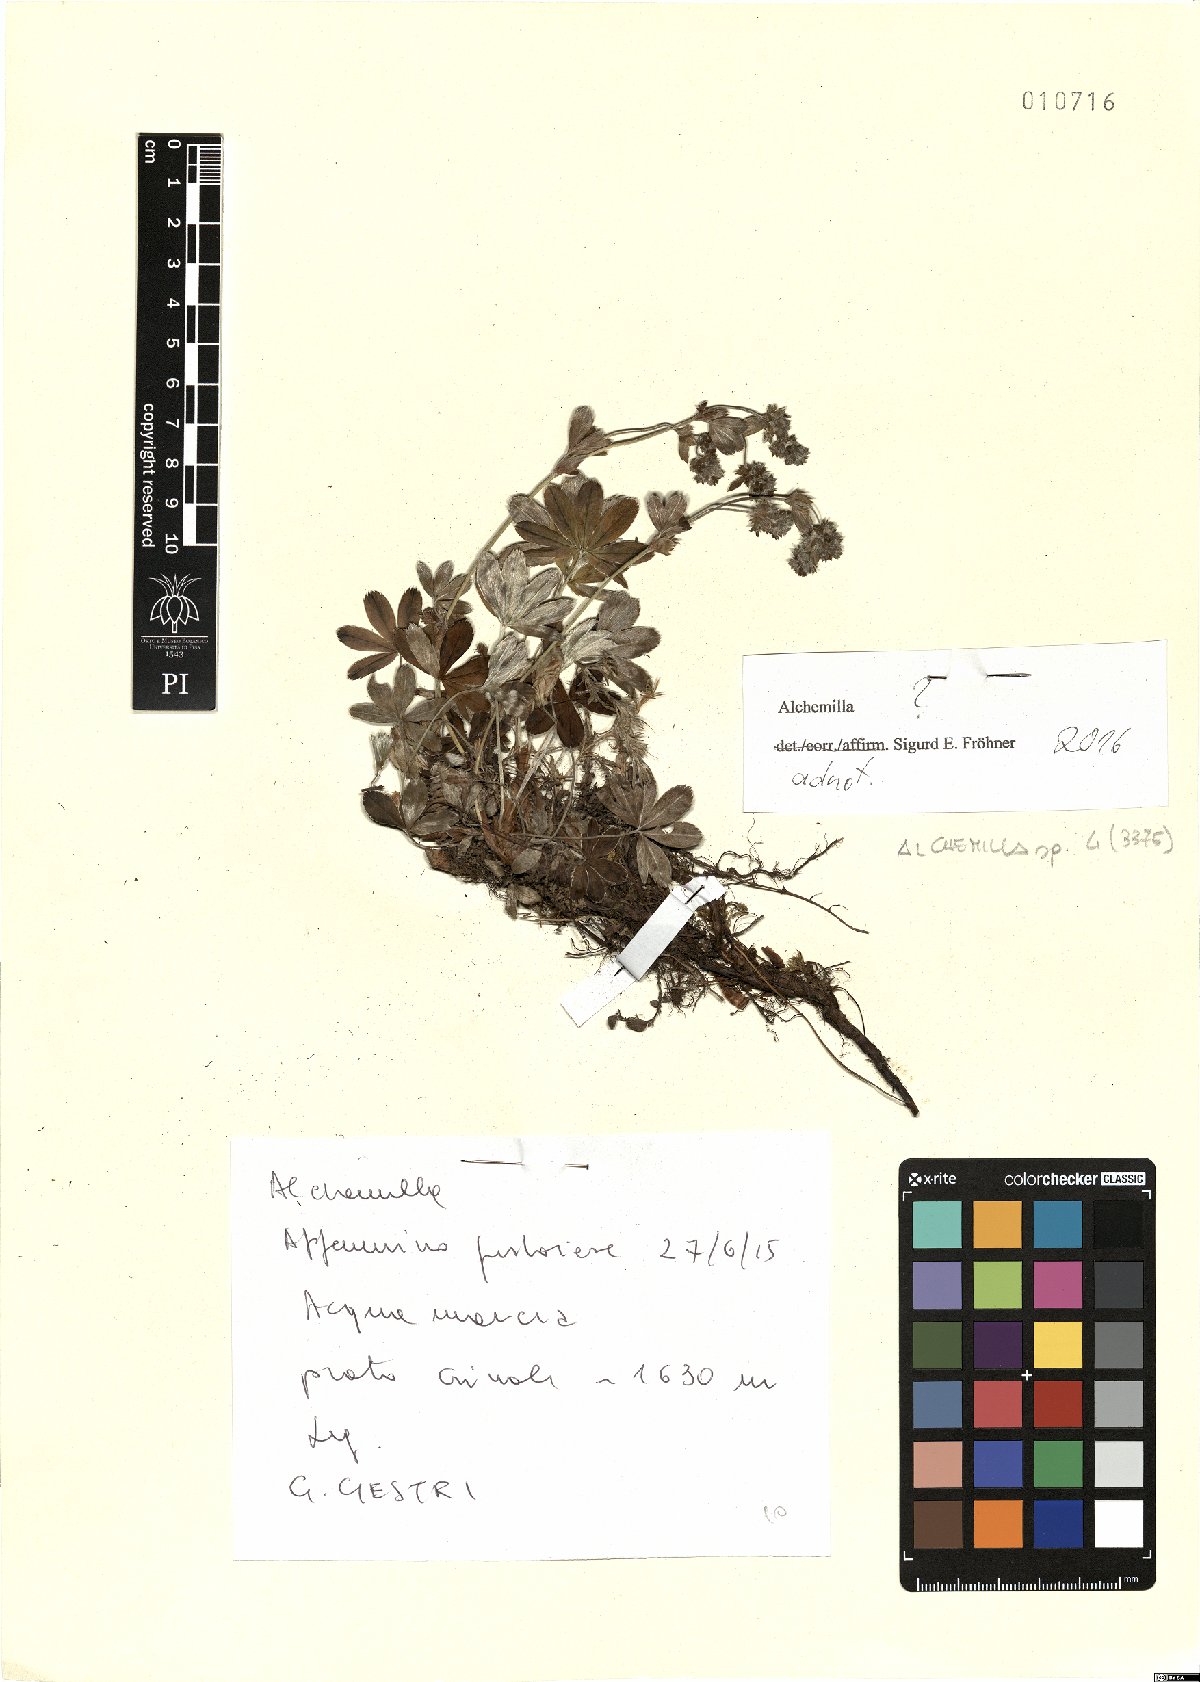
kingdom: Plantae
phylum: Tracheophyta
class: Magnoliopsida
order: Rosales
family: Rosaceae
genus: Alchemilla
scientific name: Alchemilla
